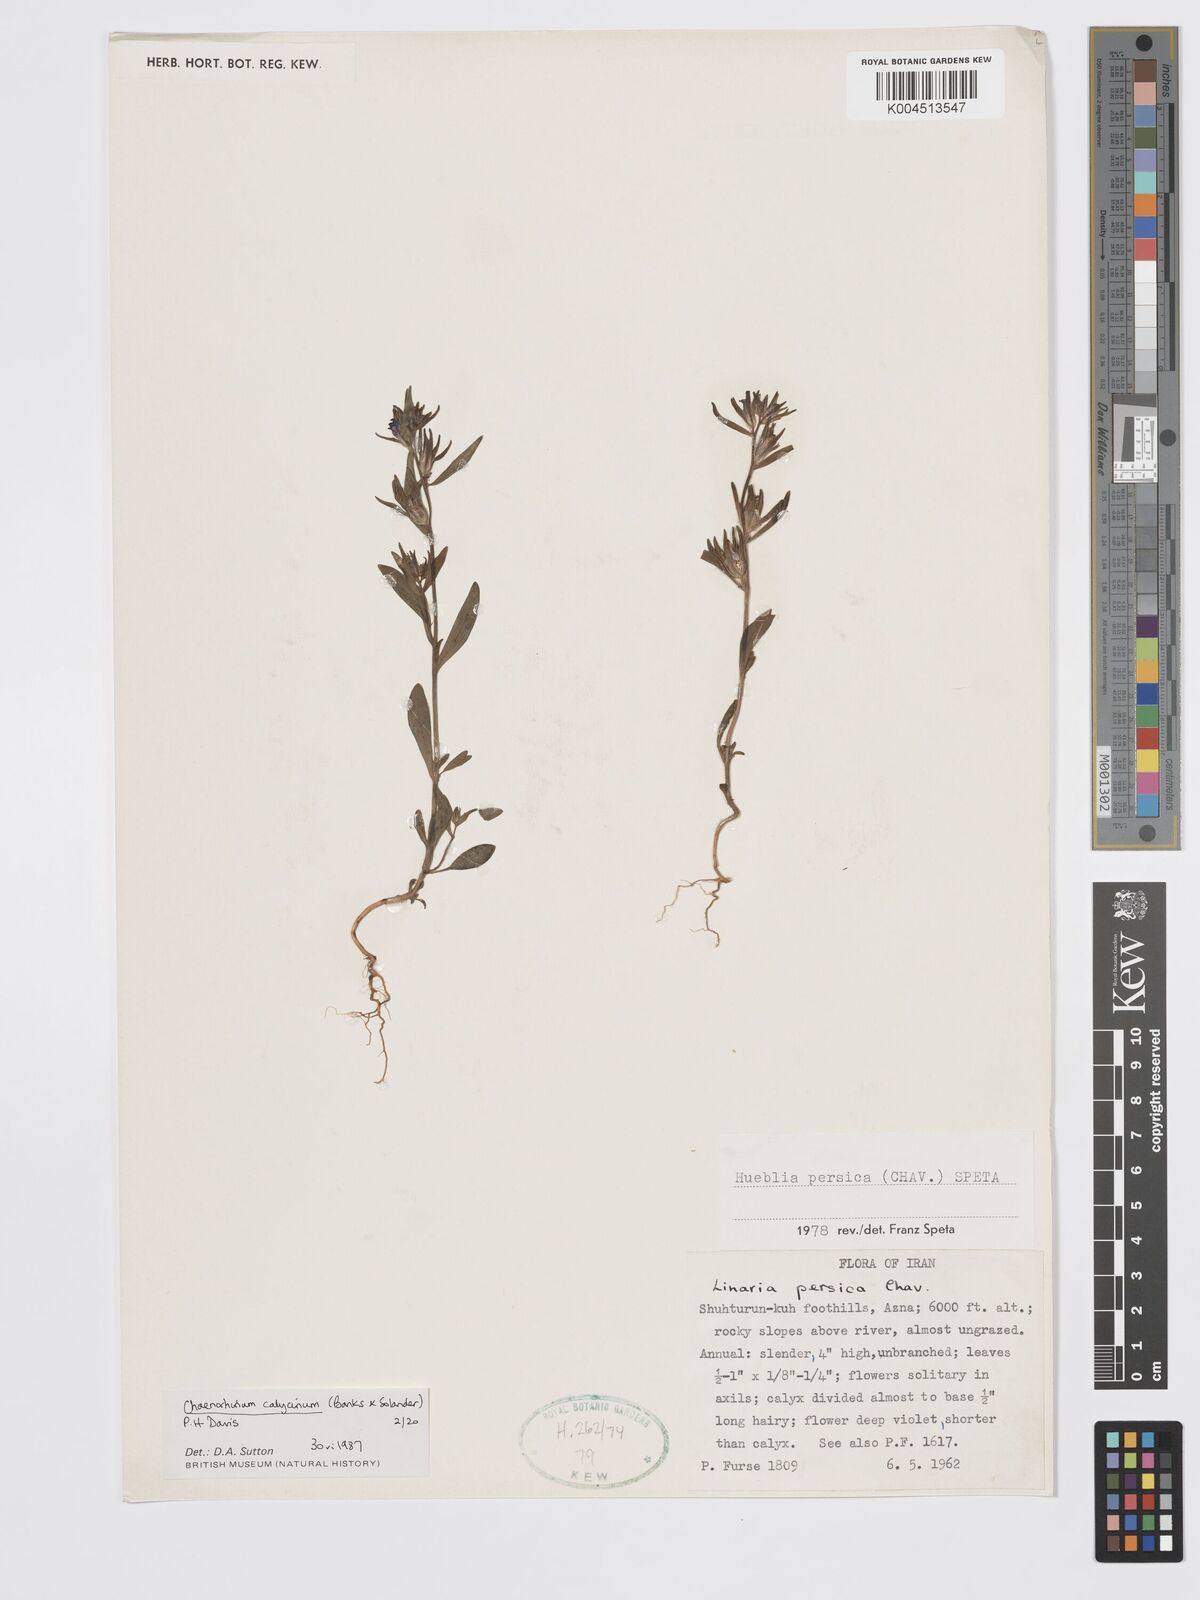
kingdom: Plantae
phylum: Tracheophyta
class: Magnoliopsida
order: Lamiales
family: Plantaginaceae
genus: Chaenorhinum
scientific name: Chaenorhinum calycinum
